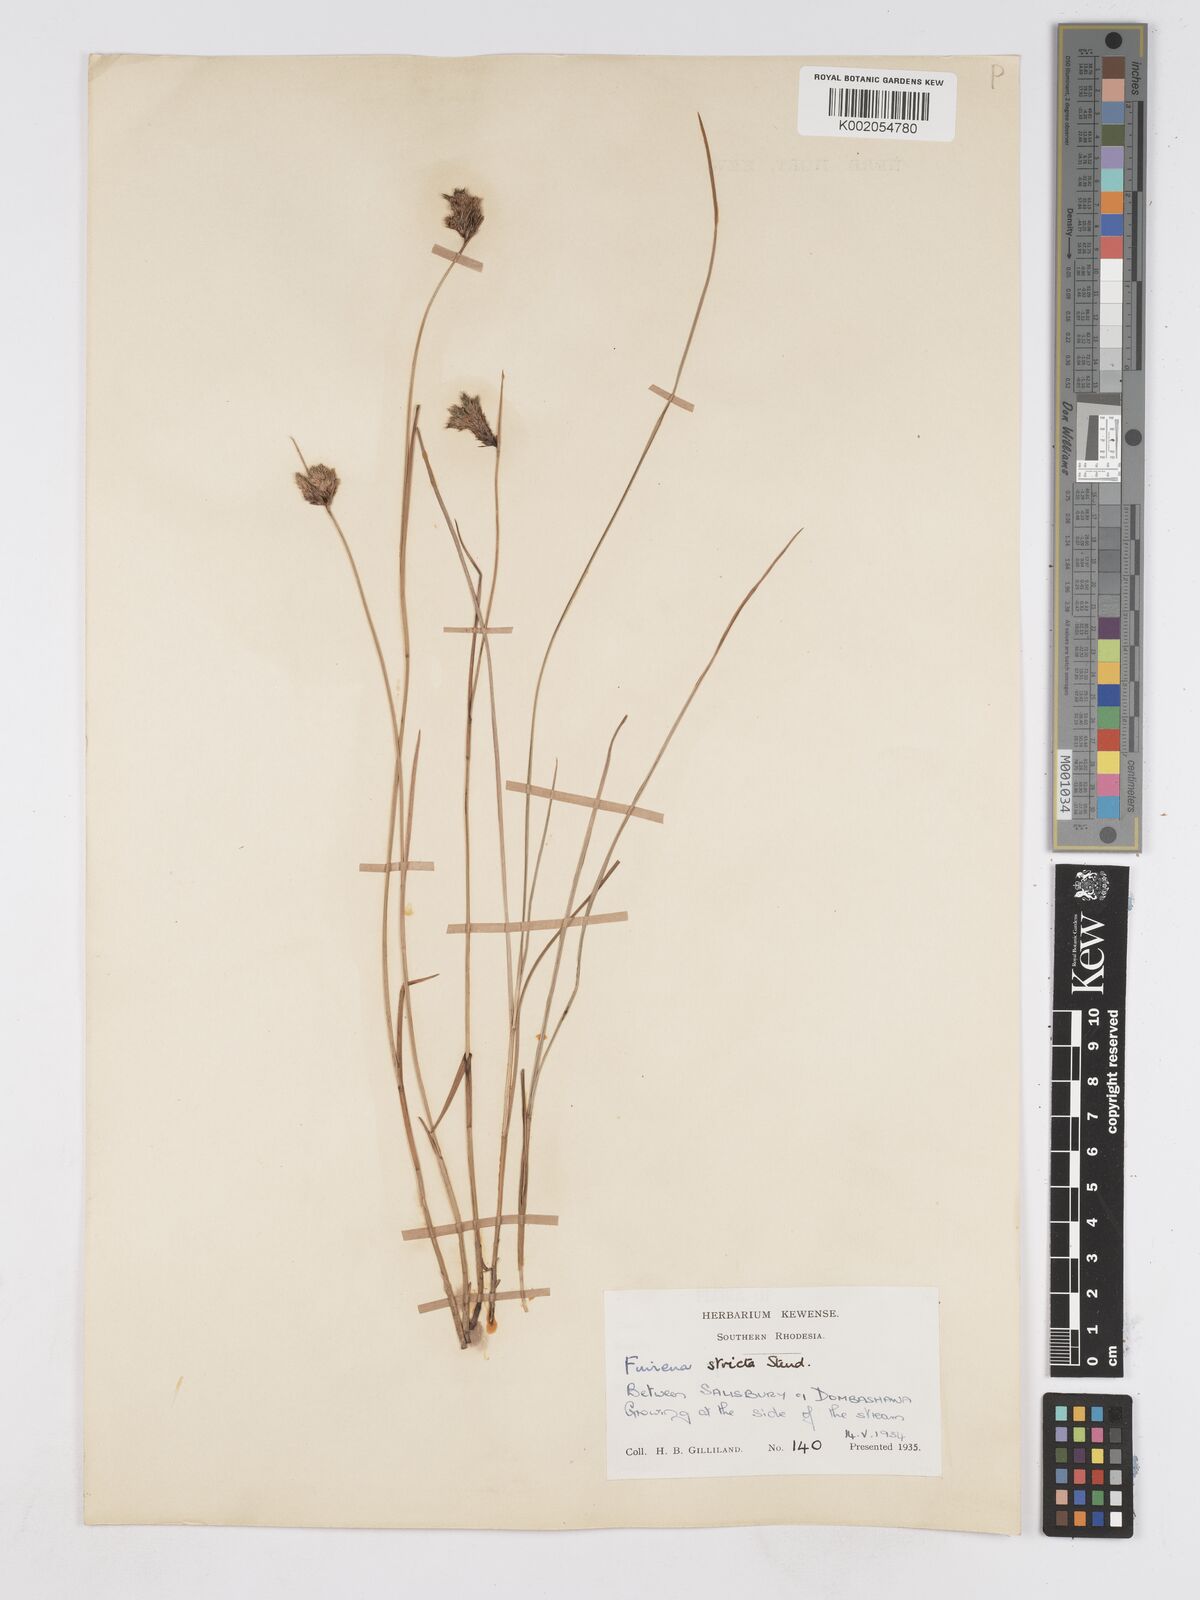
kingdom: Plantae
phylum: Tracheophyta
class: Liliopsida
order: Poales
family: Cyperaceae
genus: Fuirena
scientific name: Fuirena stricta
